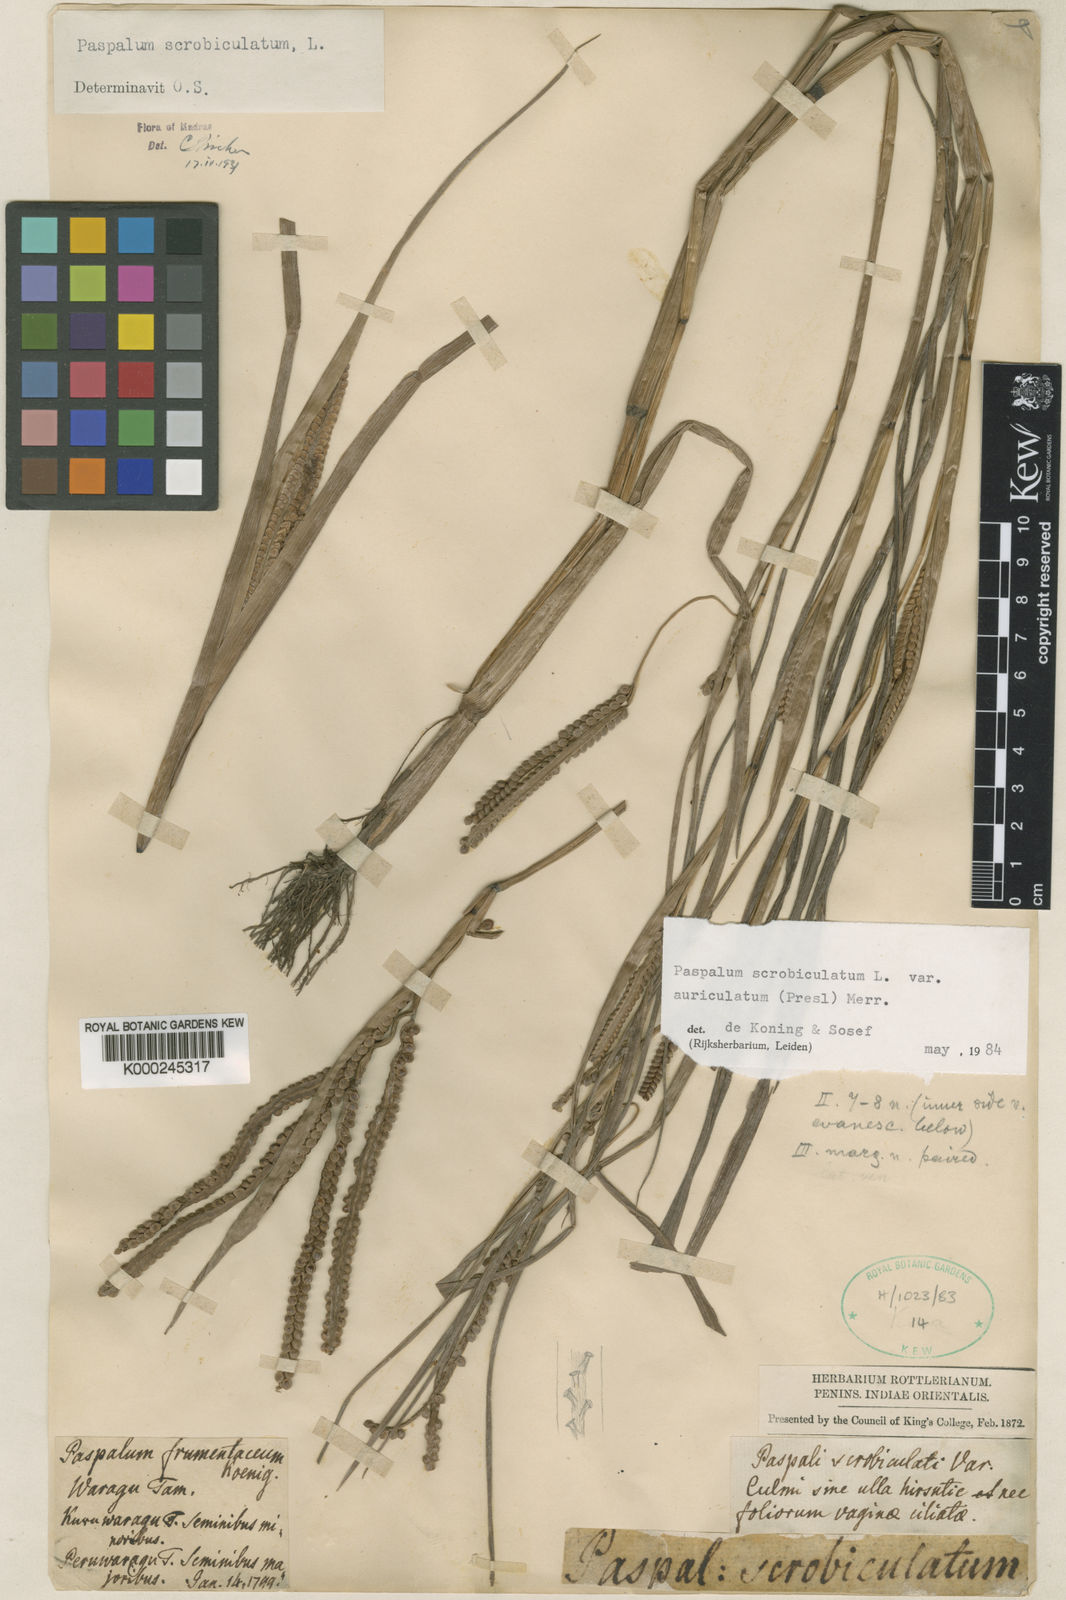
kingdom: Plantae
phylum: Tracheophyta
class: Liliopsida
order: Poales
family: Poaceae
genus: Paspalum
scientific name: Paspalum scrobiculatum
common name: Kodo millet
